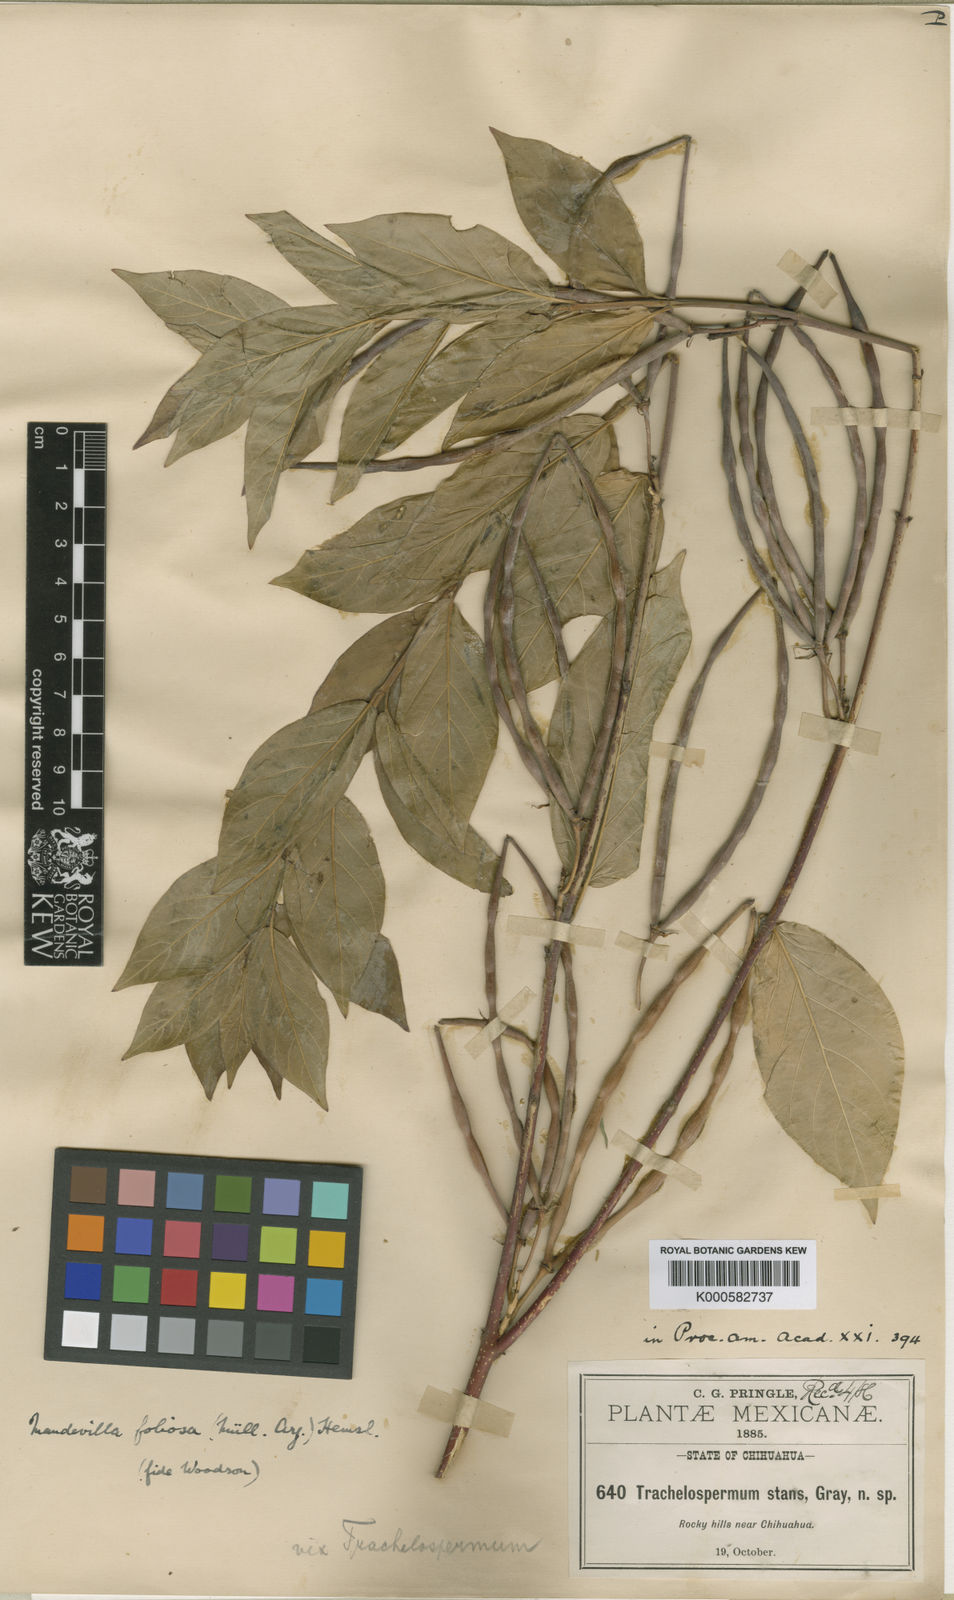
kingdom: Plantae
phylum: Tracheophyta
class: Magnoliopsida
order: Gentianales
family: Apocynaceae
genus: Mandevilla
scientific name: Mandevilla
